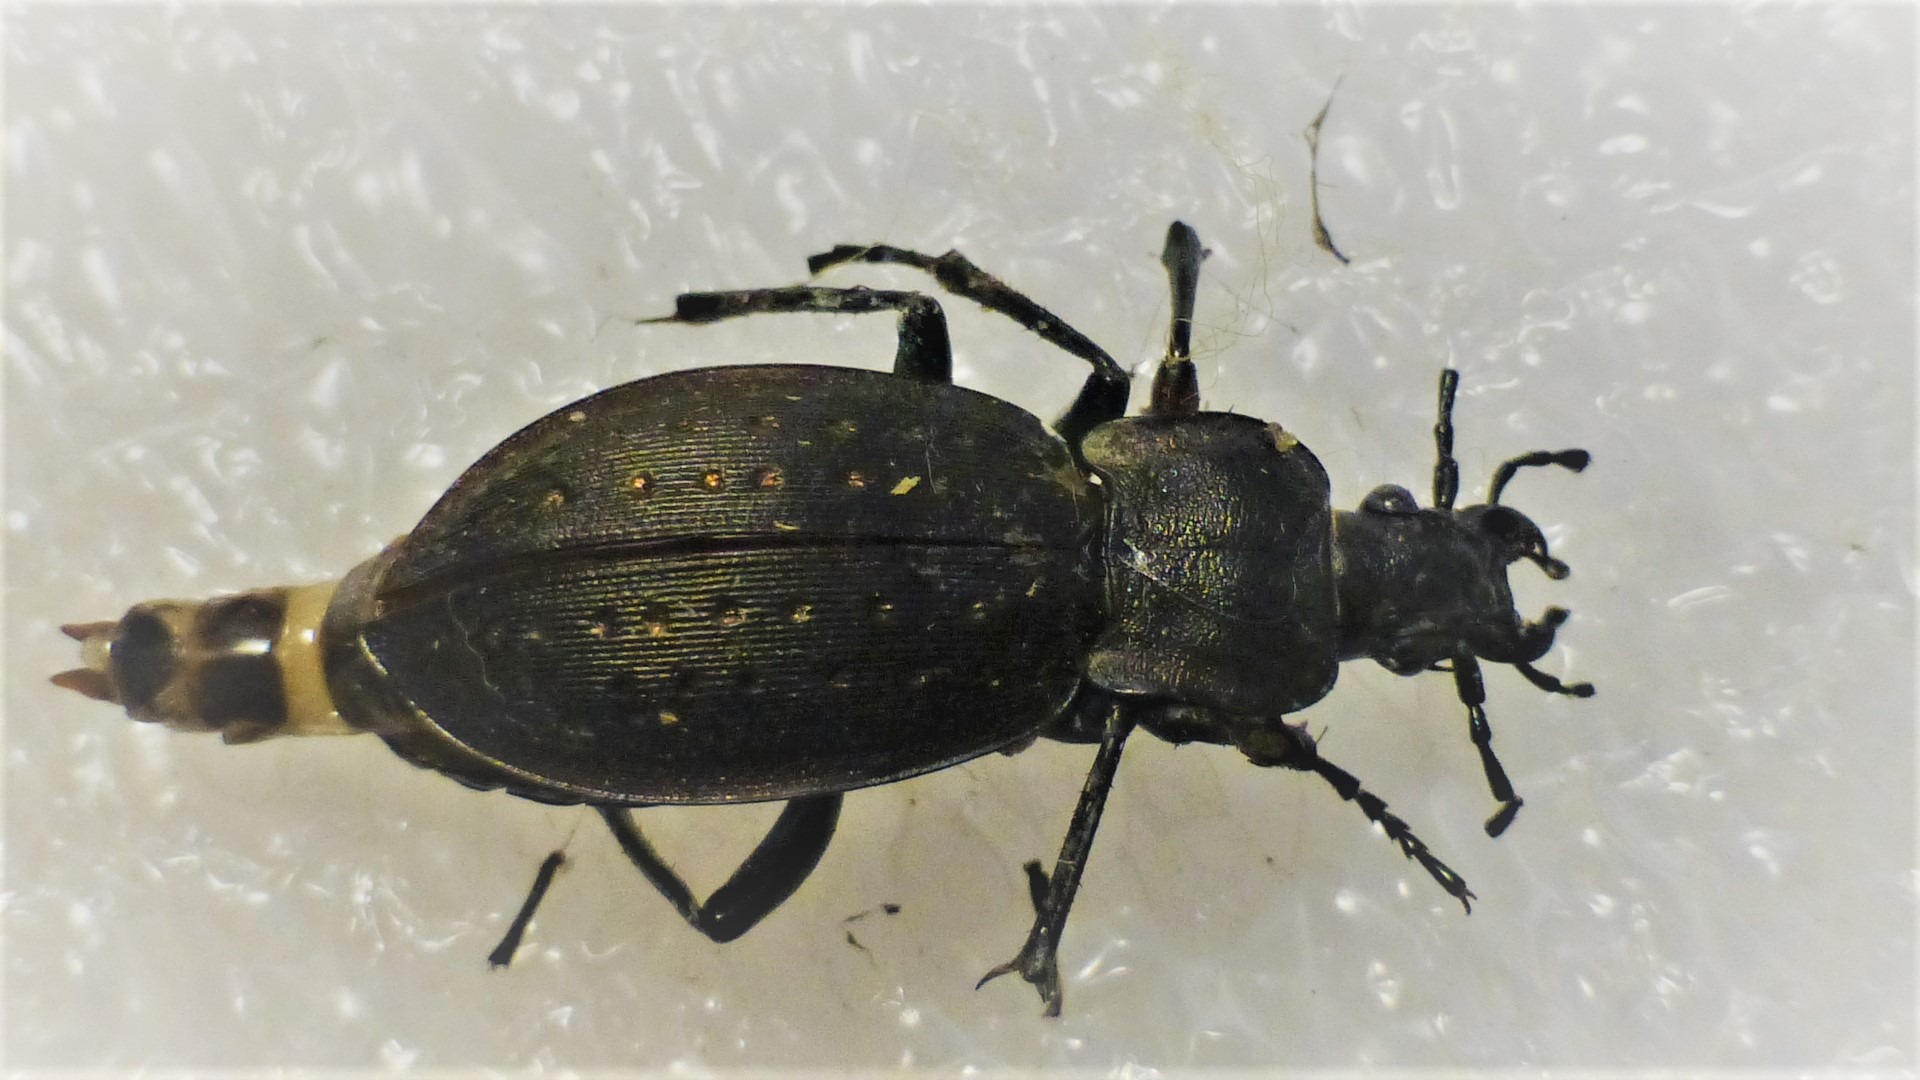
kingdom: Animalia
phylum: Arthropoda
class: Insecta
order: Coleoptera
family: Carabidae
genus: Carabus
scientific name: Carabus hortensis
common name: Guldpletløber
